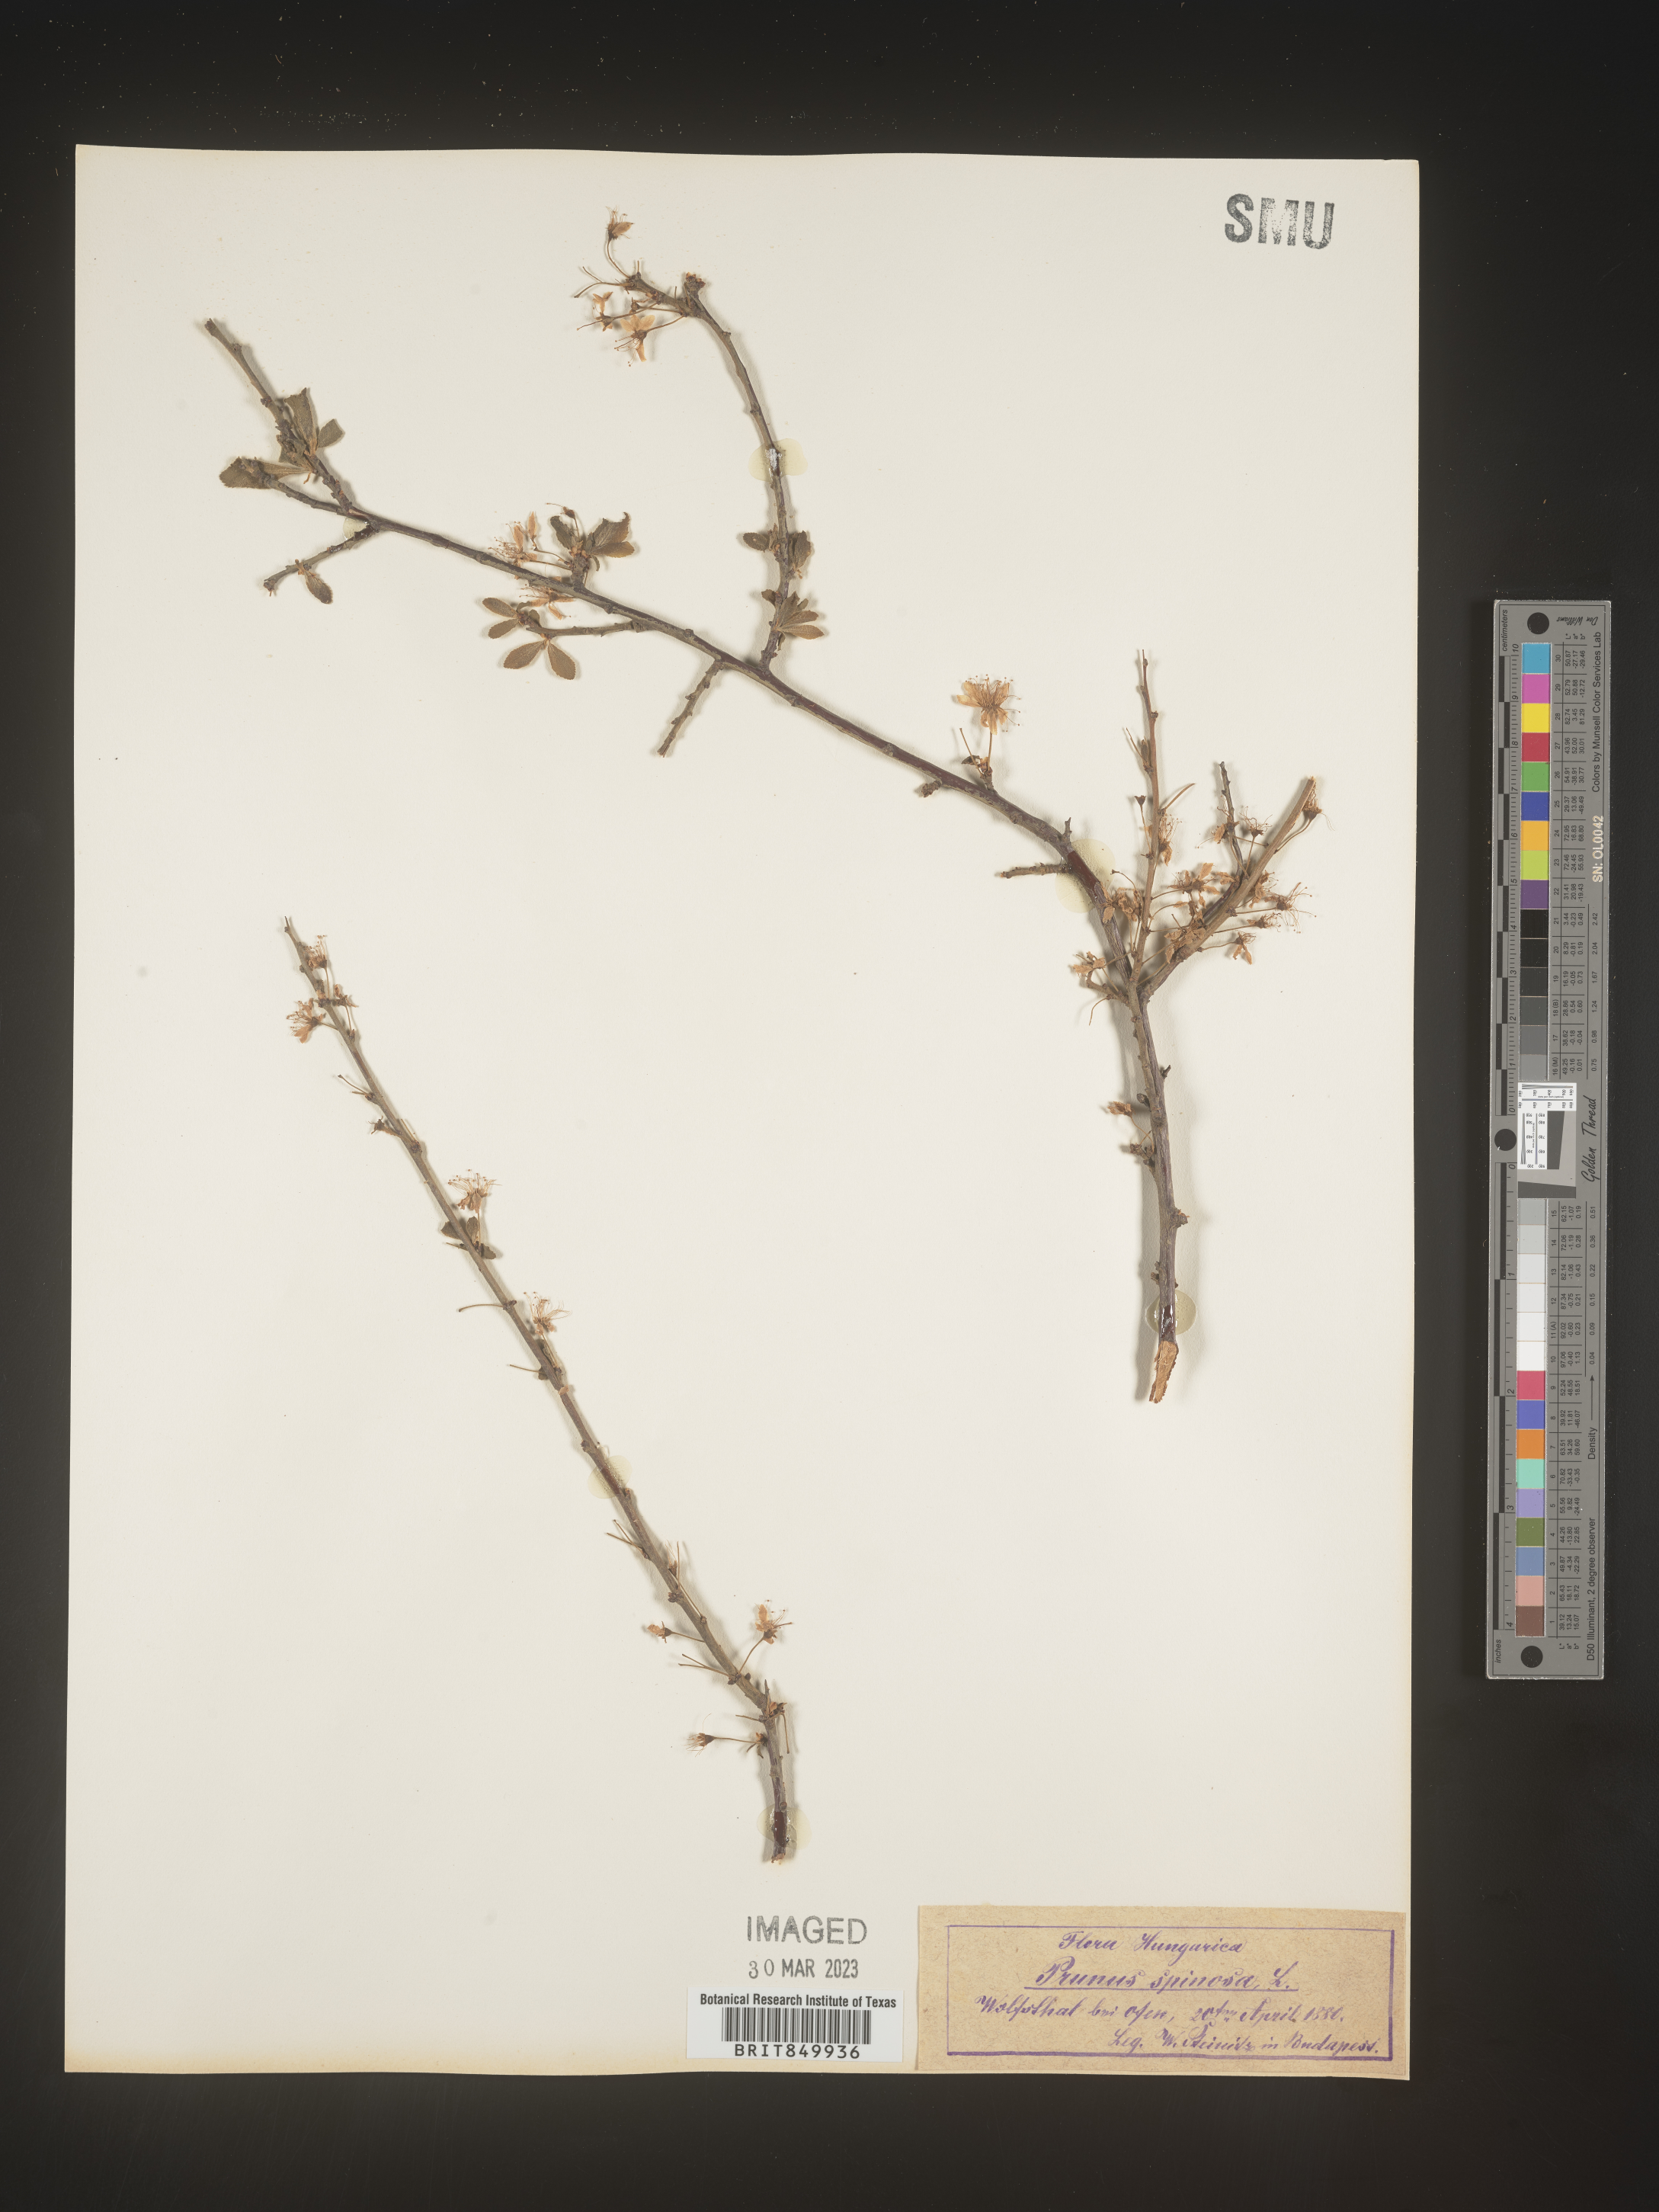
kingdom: Plantae
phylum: Tracheophyta
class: Magnoliopsida
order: Rosales
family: Rosaceae
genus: Pyrus
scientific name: Pyrus
